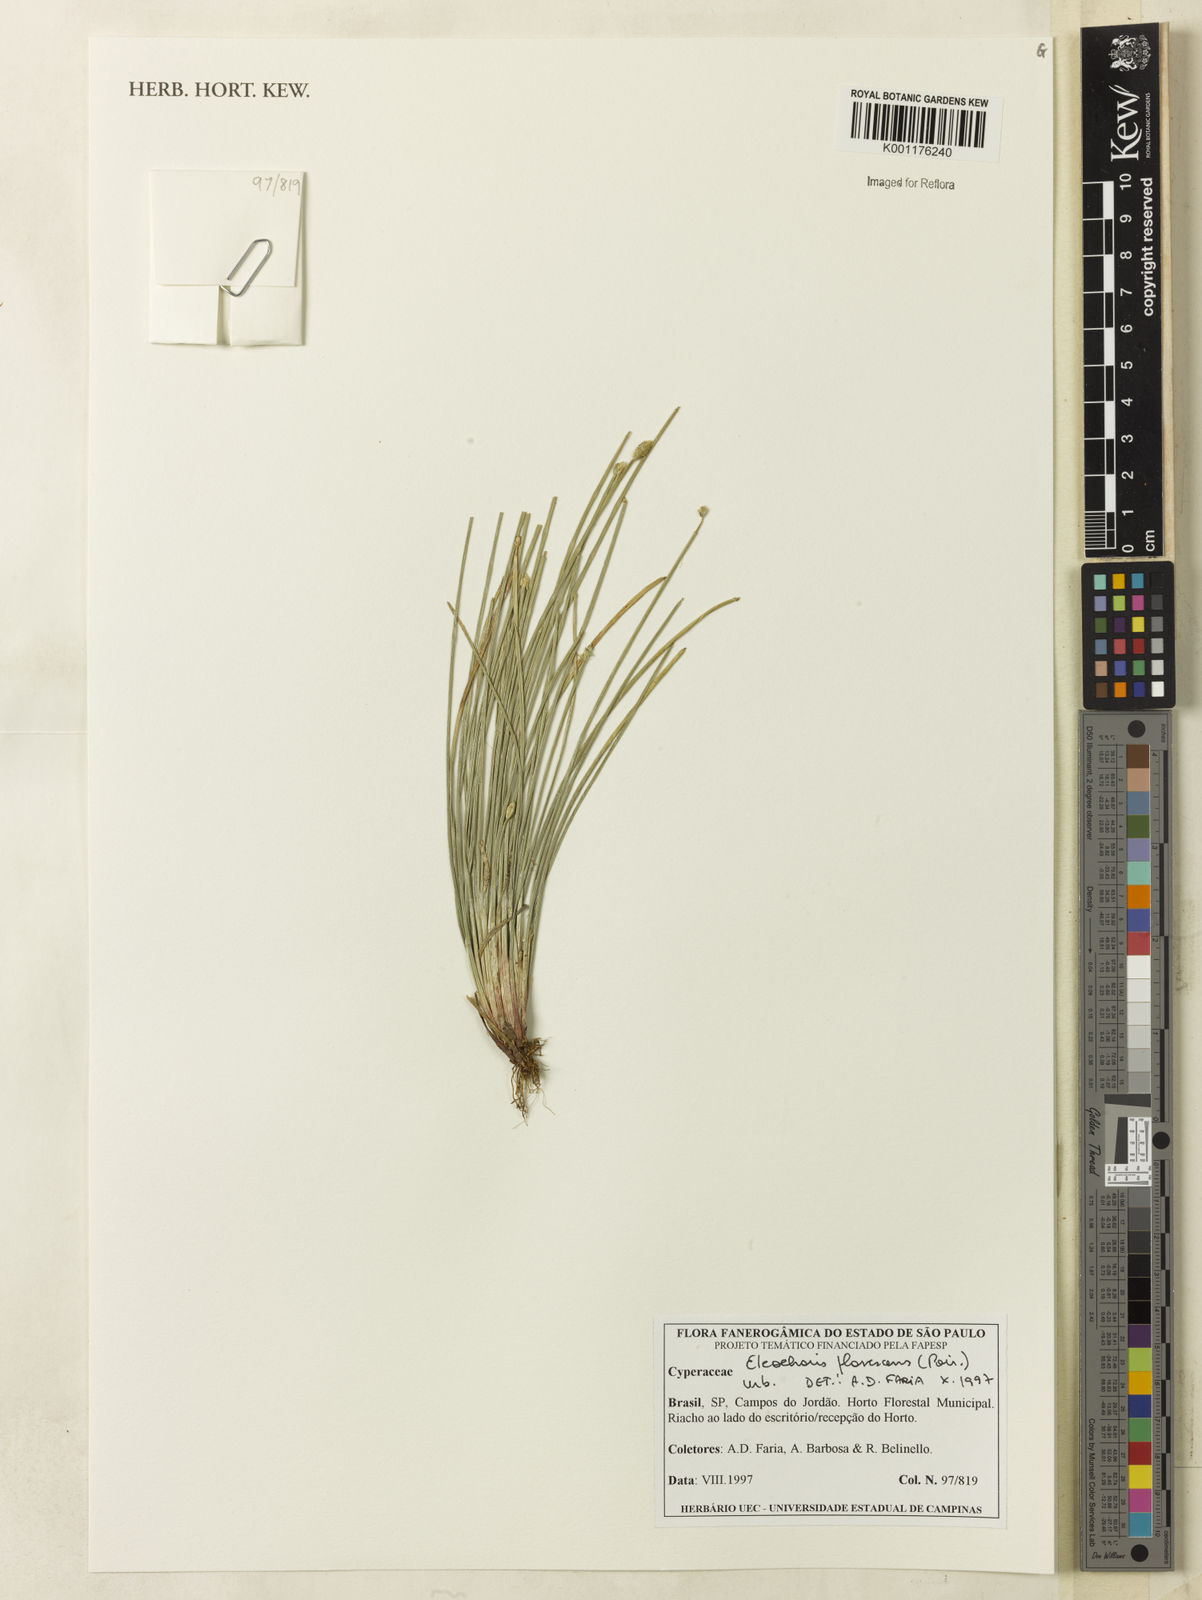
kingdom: Plantae
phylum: Tracheophyta
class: Liliopsida
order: Poales
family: Cyperaceae
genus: Eleocharis
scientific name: Eleocharis flavescens
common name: Yellow spikerush
